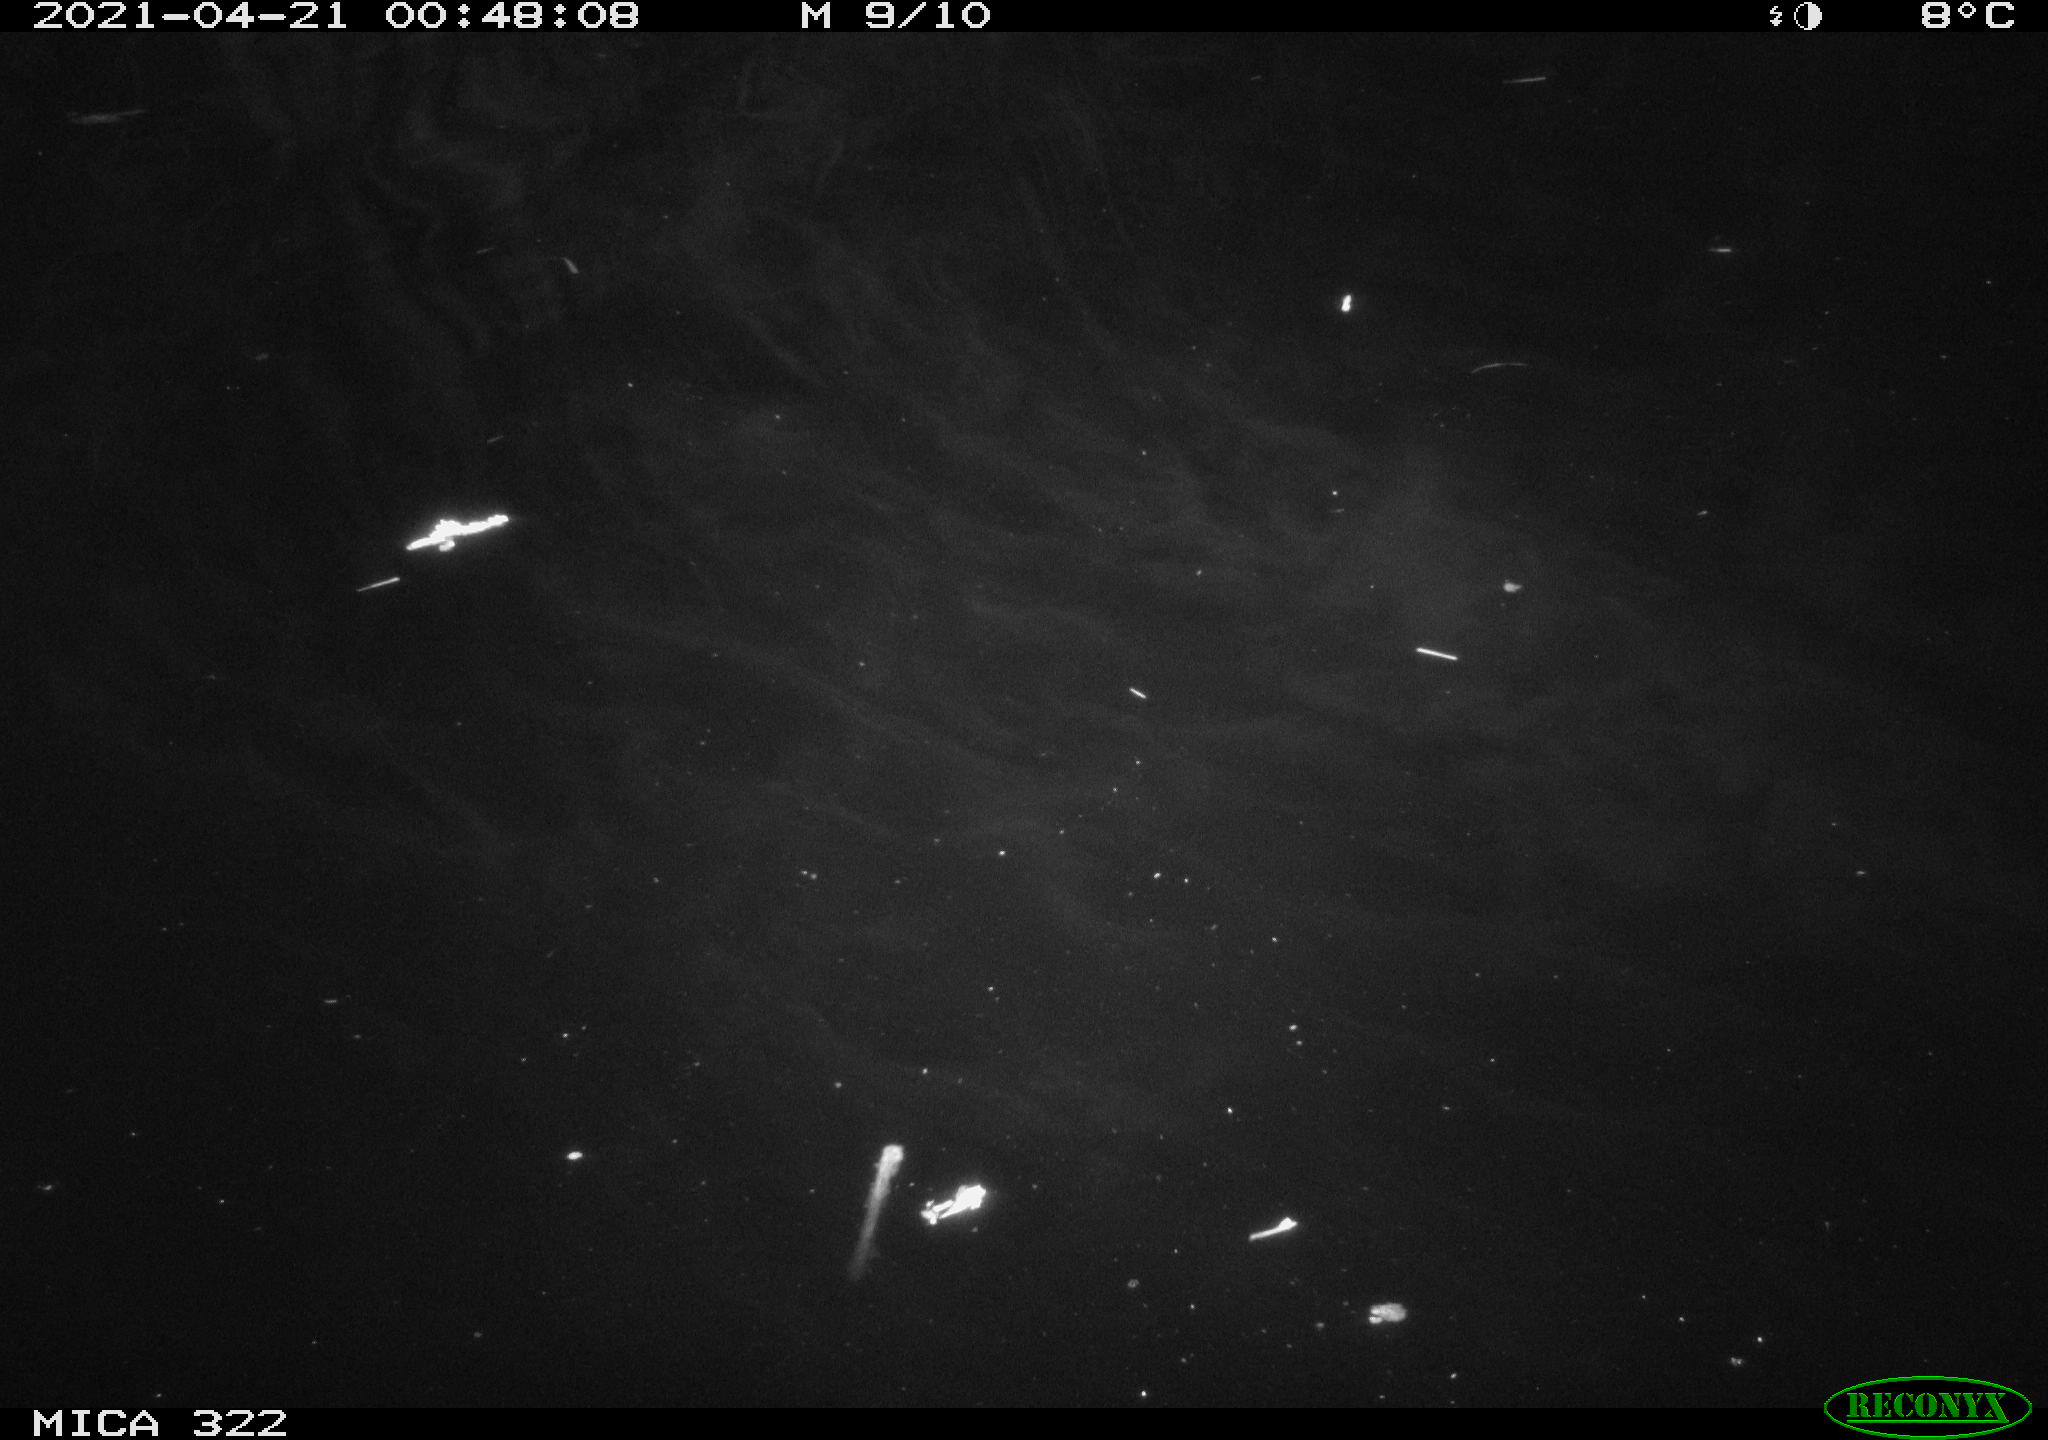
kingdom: Animalia
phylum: Chordata
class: Aves
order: Anseriformes
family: Anatidae
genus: Anas
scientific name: Anas platyrhynchos
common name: Mallard
